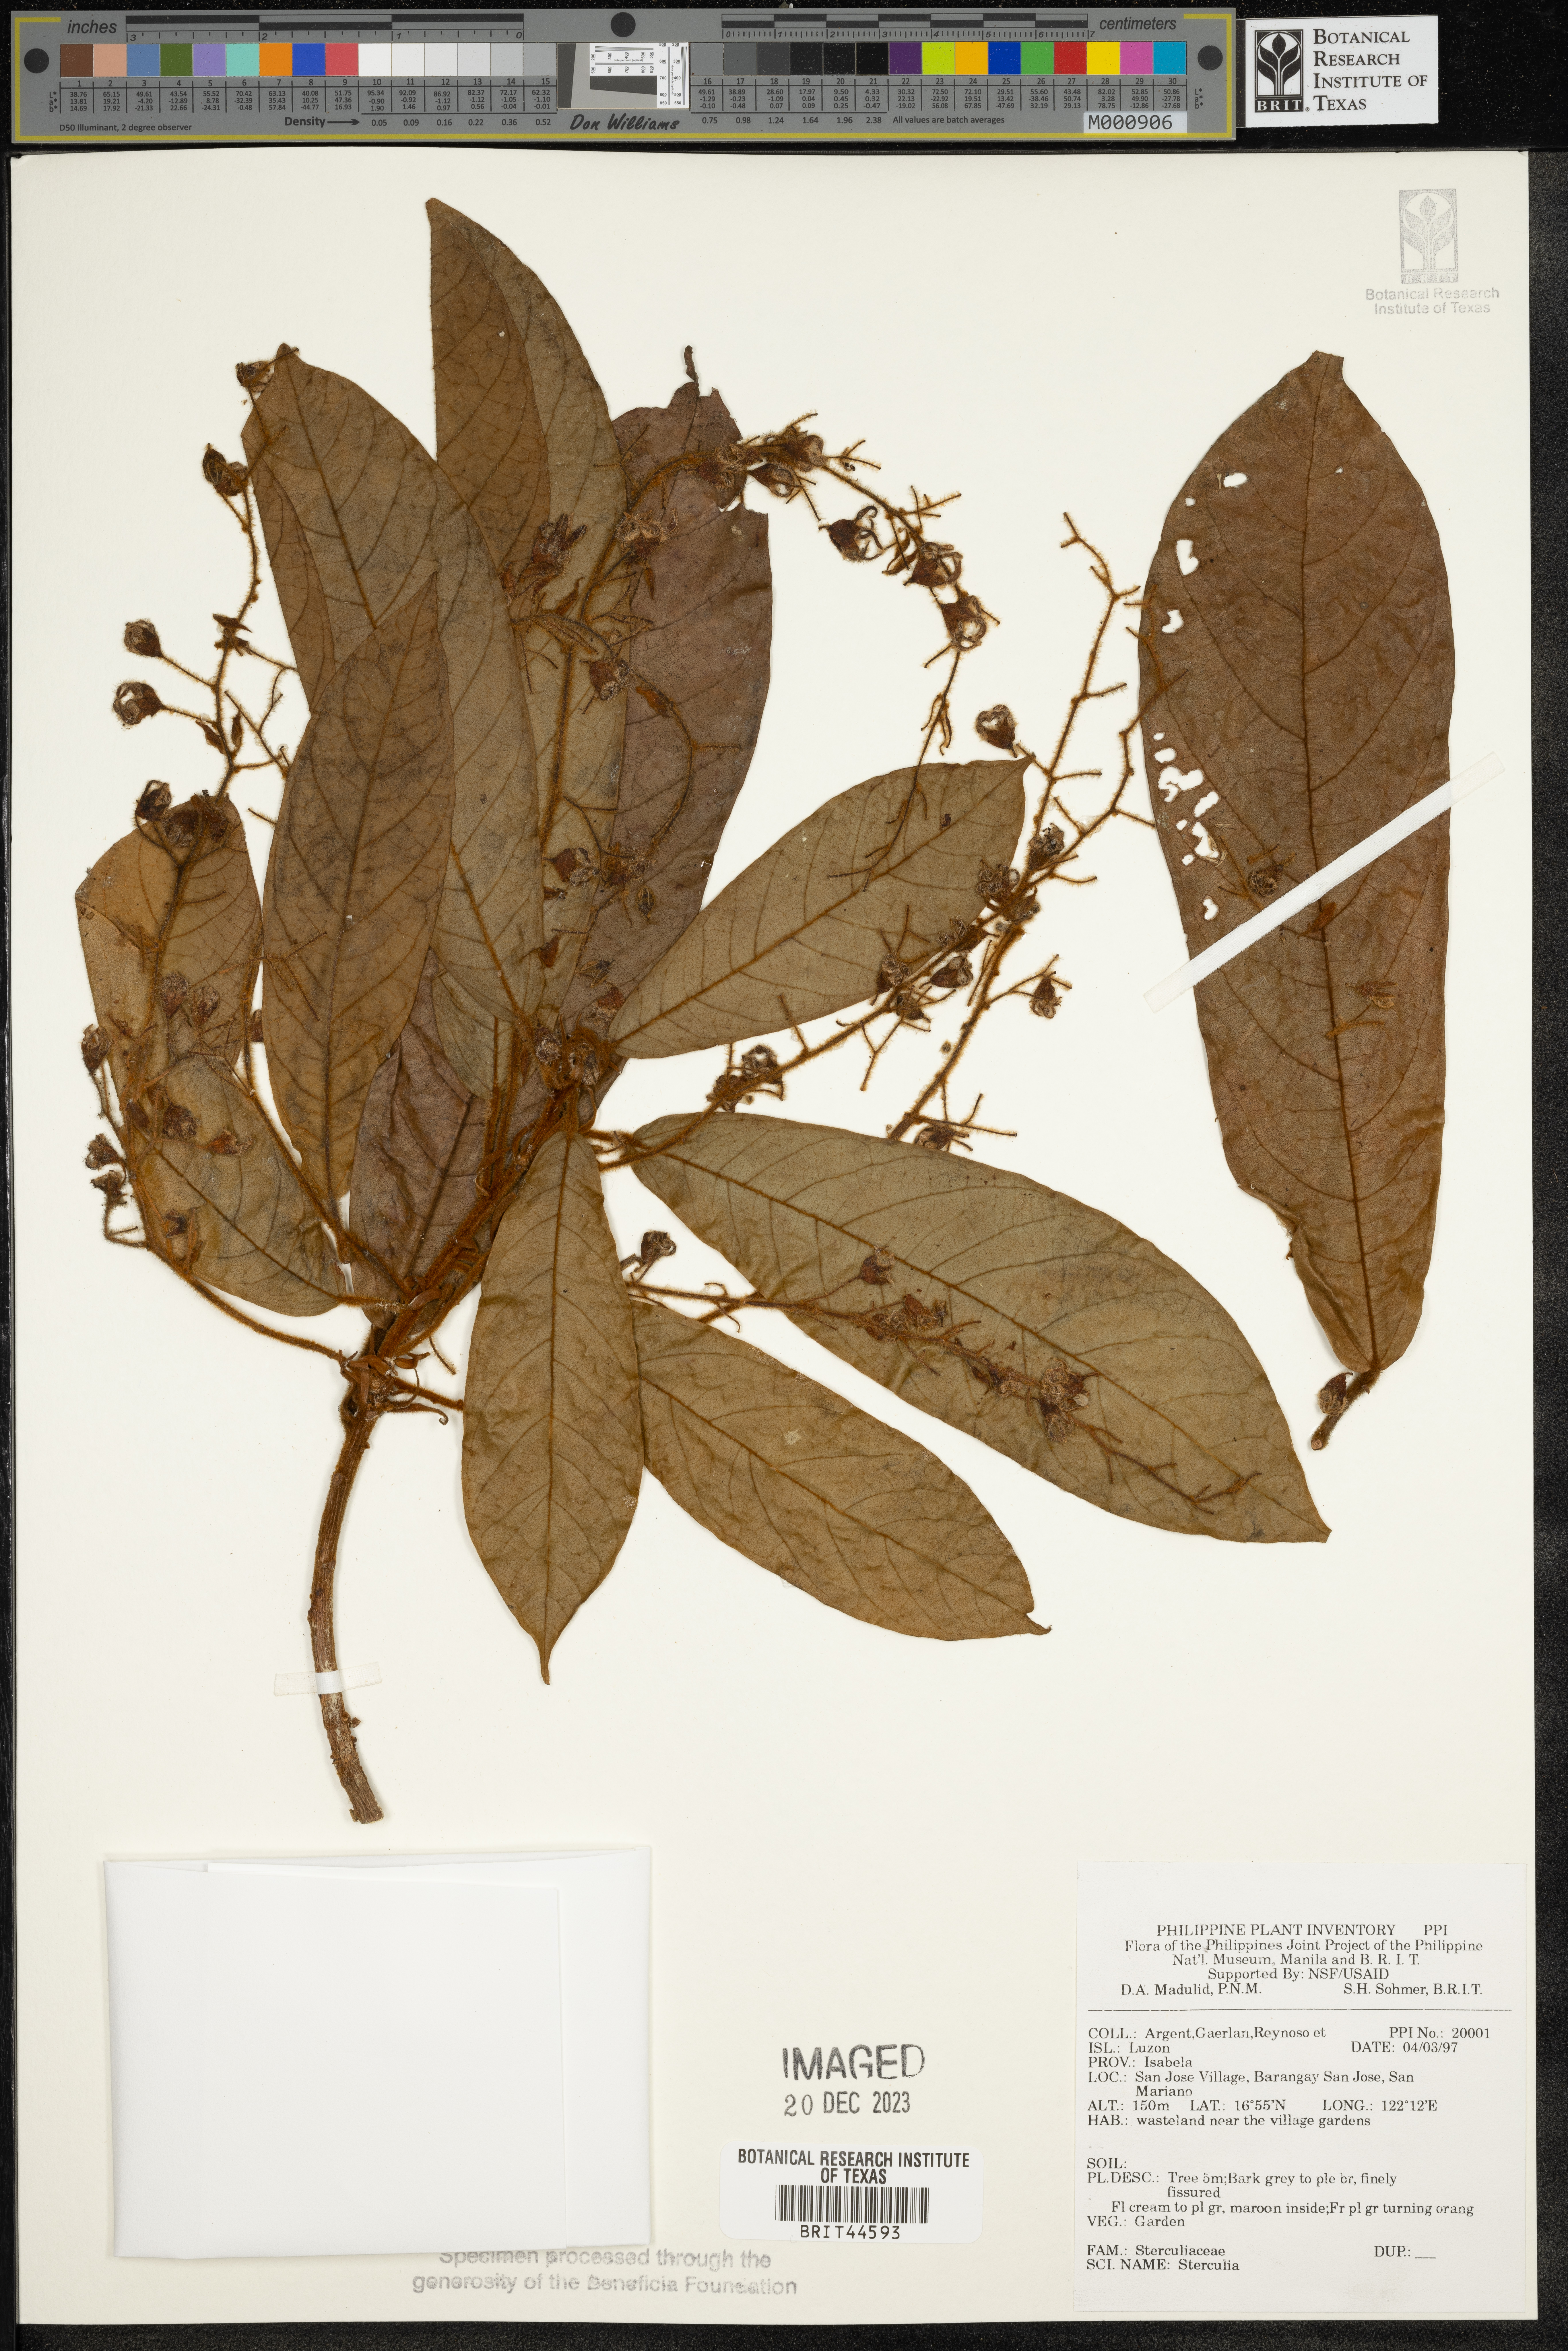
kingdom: Plantae
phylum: Tracheophyta
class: Magnoliopsida
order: Malvales
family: Malvaceae
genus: Sterculia
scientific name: Sterculia
